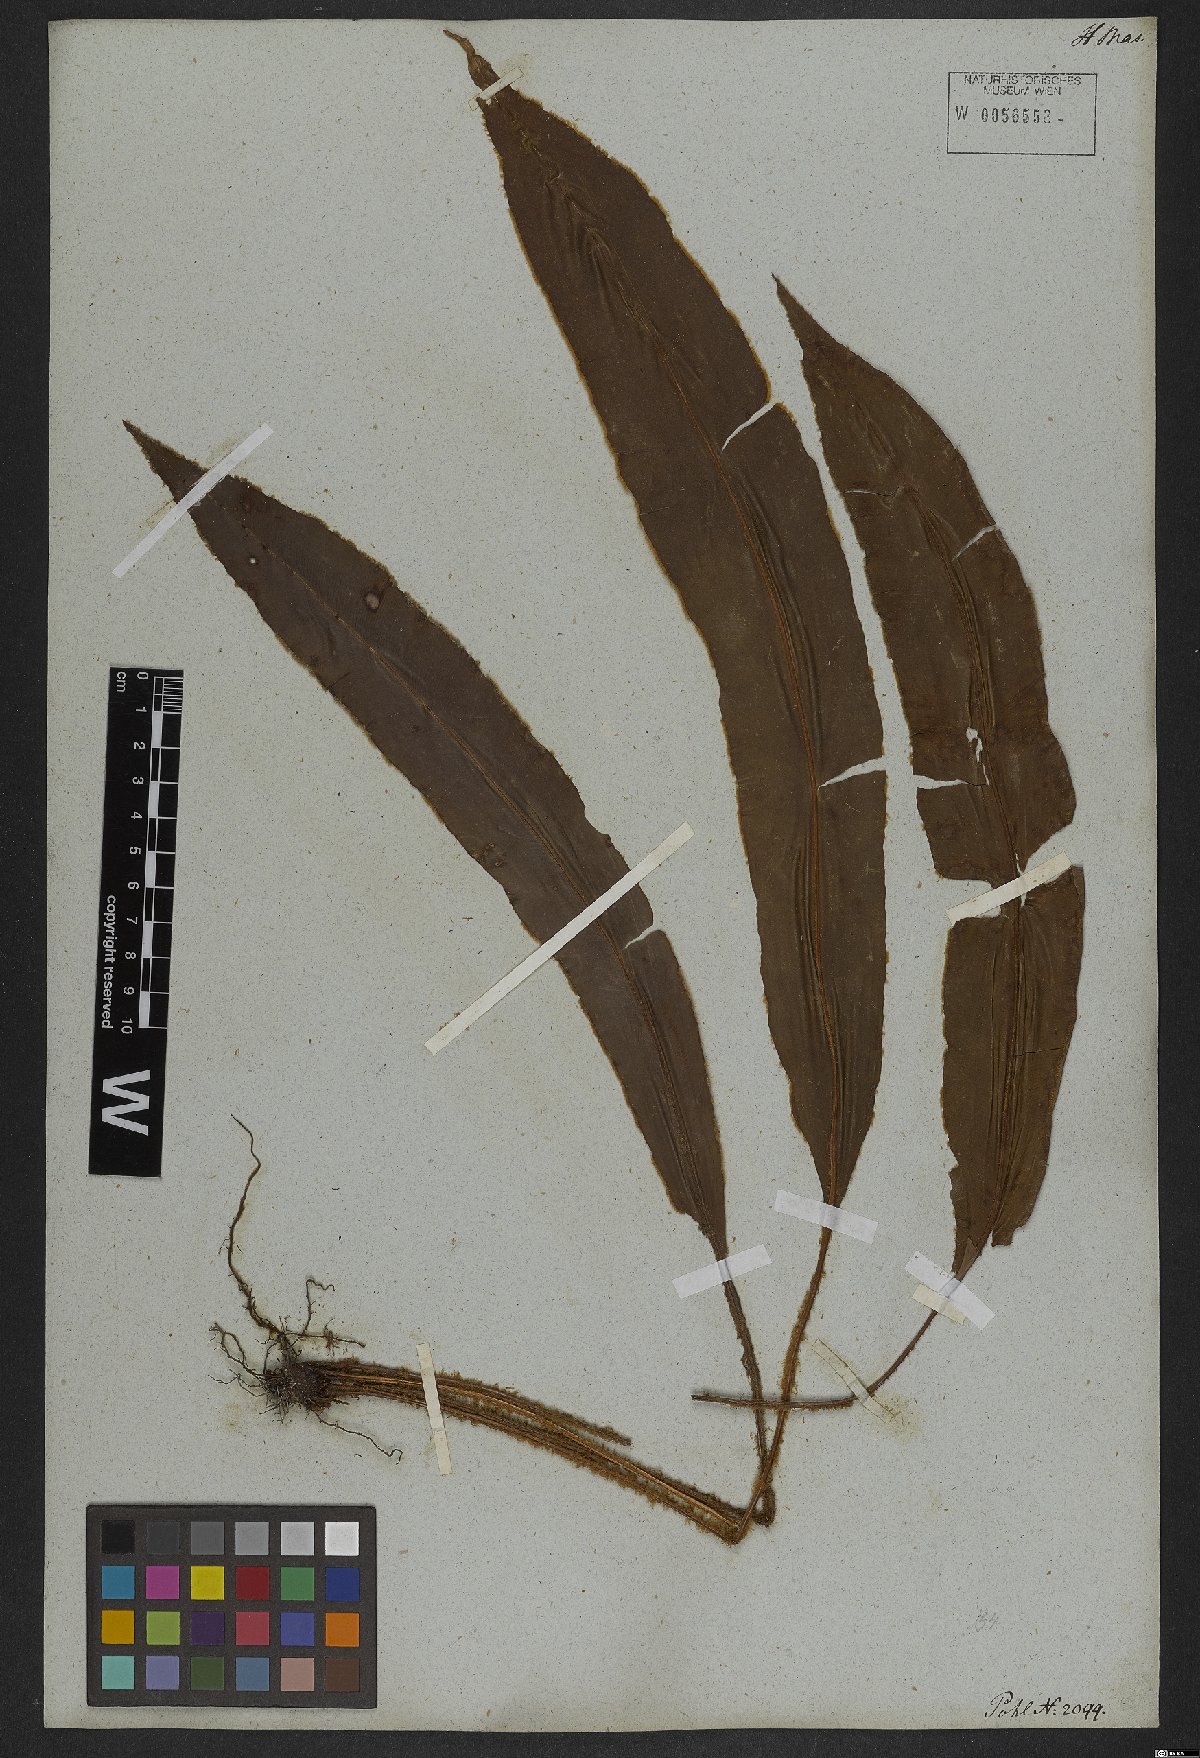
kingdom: Plantae
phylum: Tracheophyta
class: Polypodiopsida
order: Polypodiales
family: Dryopteridaceae
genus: Elaphoglossum
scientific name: Elaphoglossum perelegans
